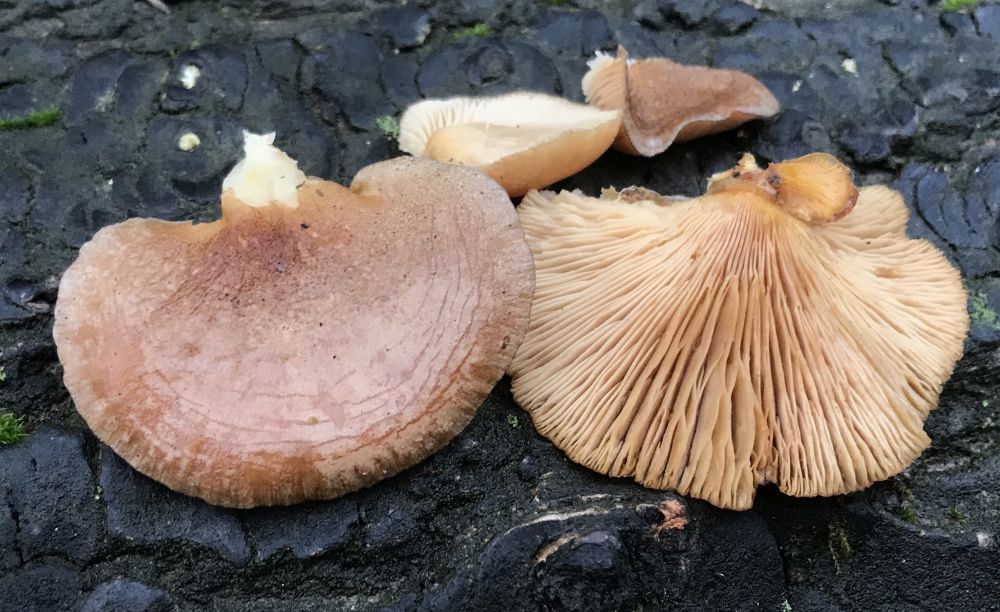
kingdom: Fungi
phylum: Basidiomycota
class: Agaricomycetes
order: Agaricales
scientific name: Agaricales
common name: champignonordenen
